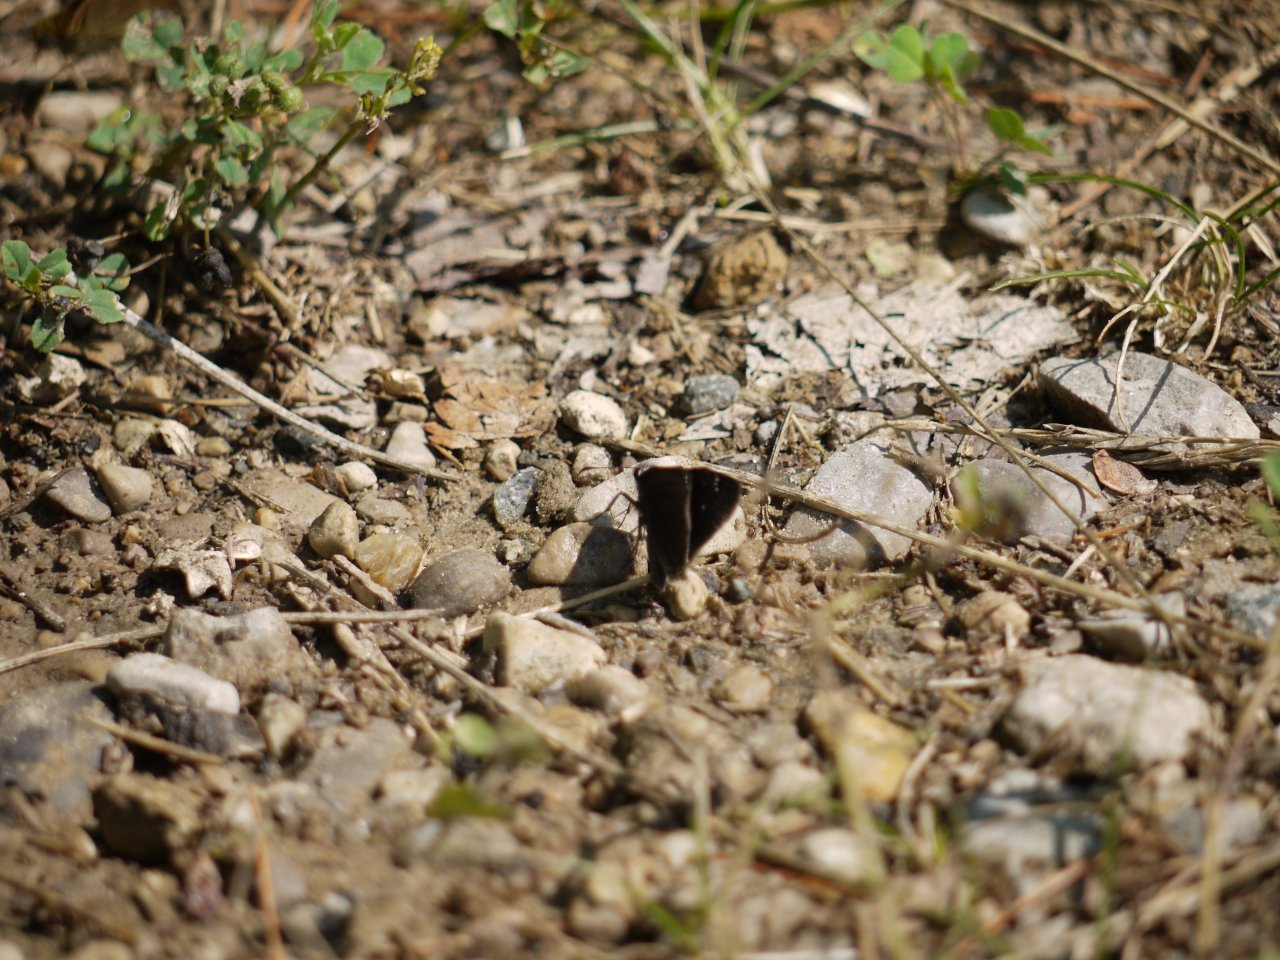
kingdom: Animalia
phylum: Arthropoda
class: Insecta
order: Lepidoptera
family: Hesperiidae
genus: Pholisora
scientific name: Pholisora catullus
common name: Common Sootywing
